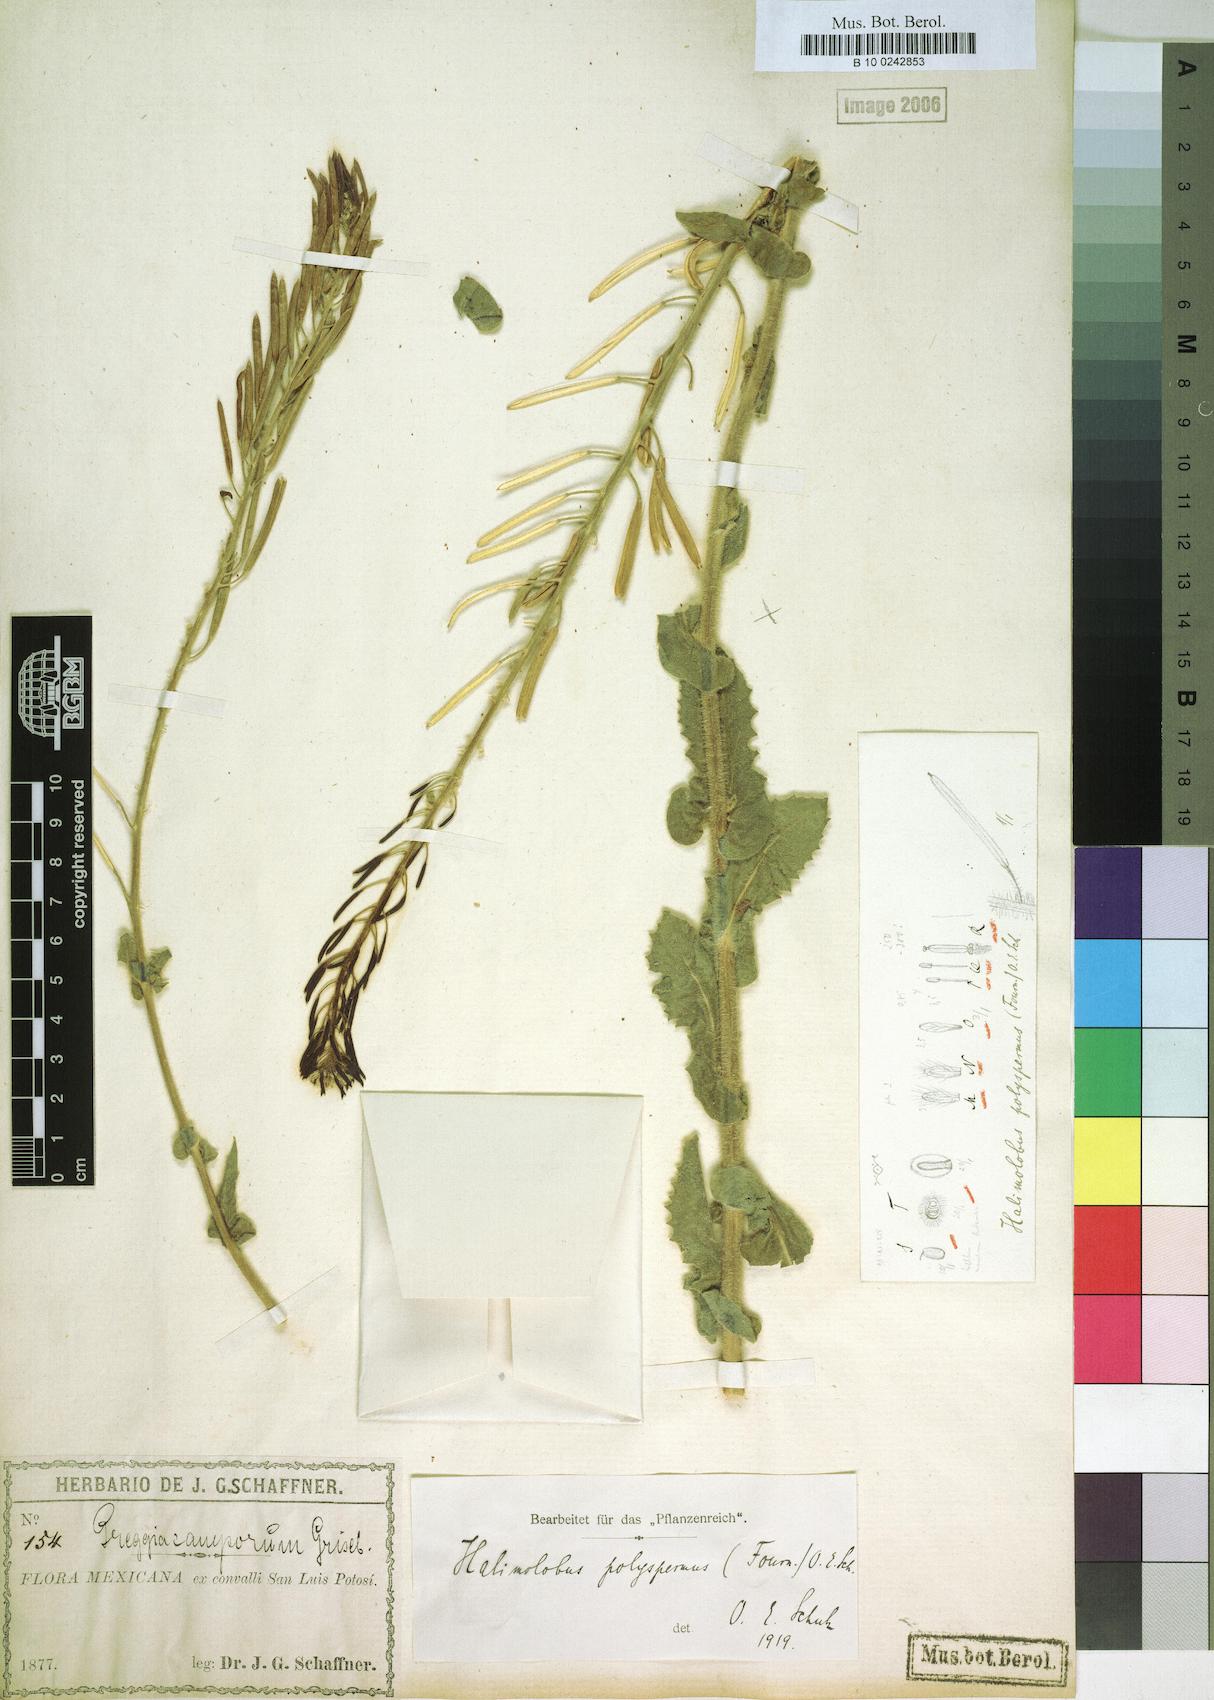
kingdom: Plantae
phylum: Tracheophyta
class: Magnoliopsida
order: Brassicales
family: Brassicaceae
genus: Exhalimolobos
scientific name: Exhalimolobos polyspermus
